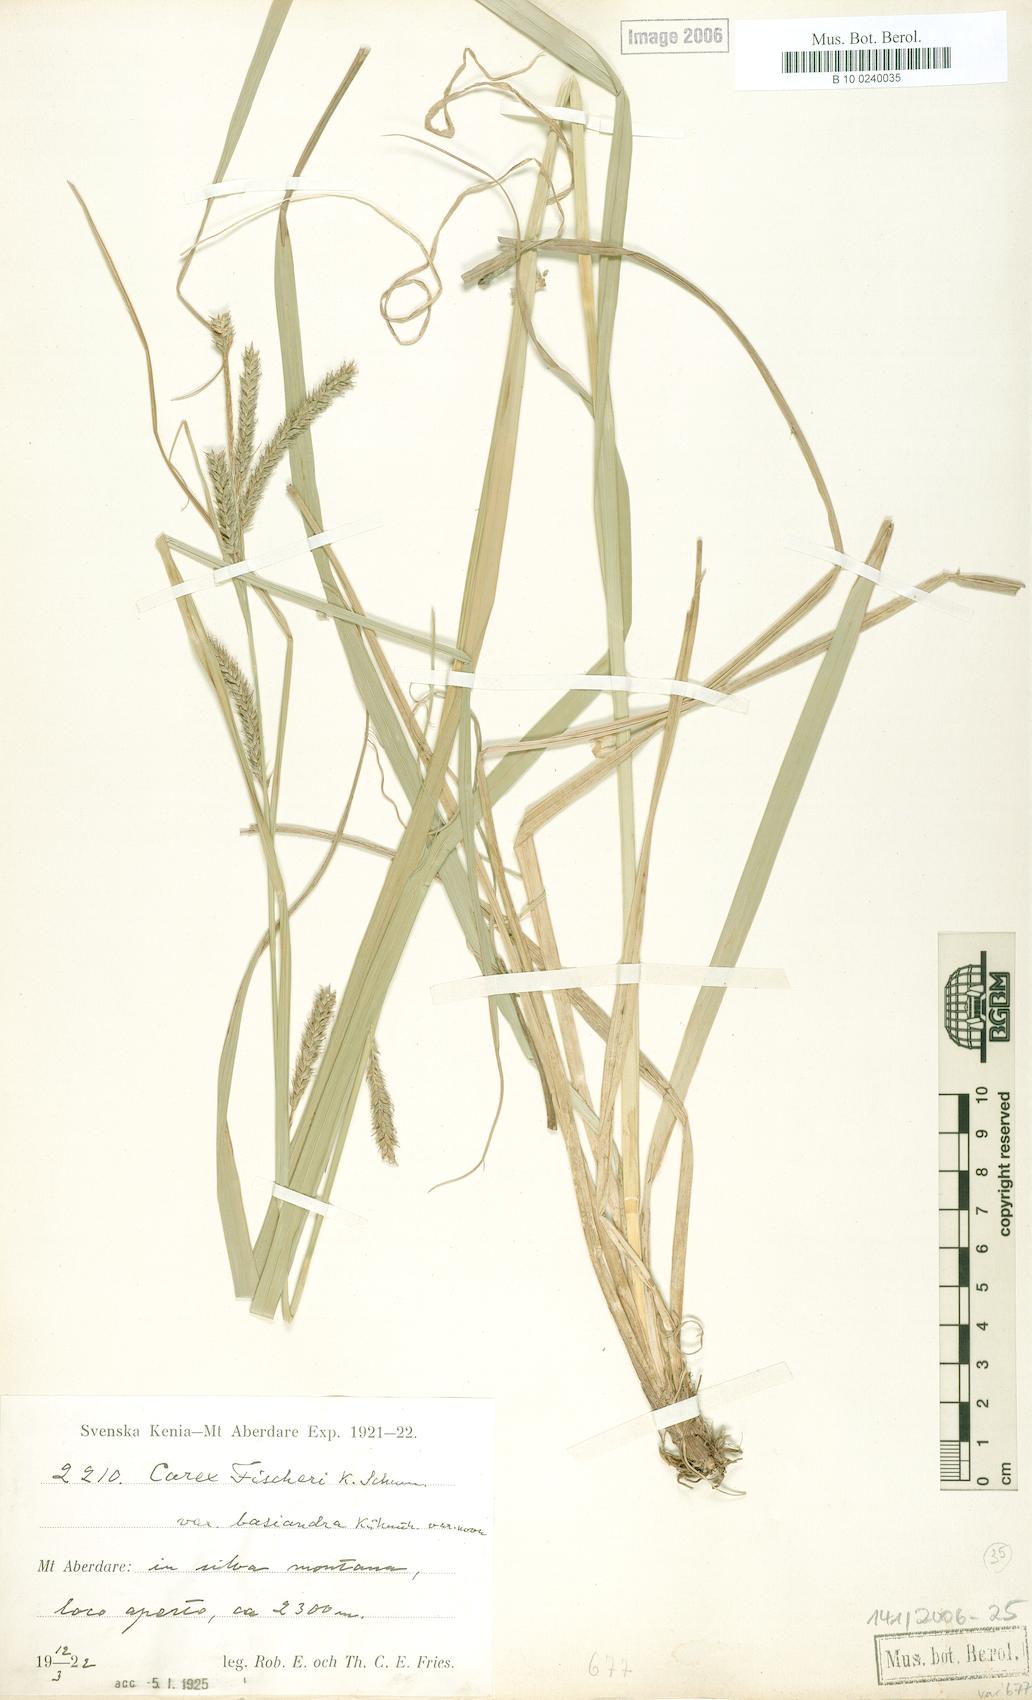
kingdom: Plantae
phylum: Tracheophyta
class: Liliopsida
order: Poales
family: Cyperaceae
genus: Carex
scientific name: Carex fischeri
